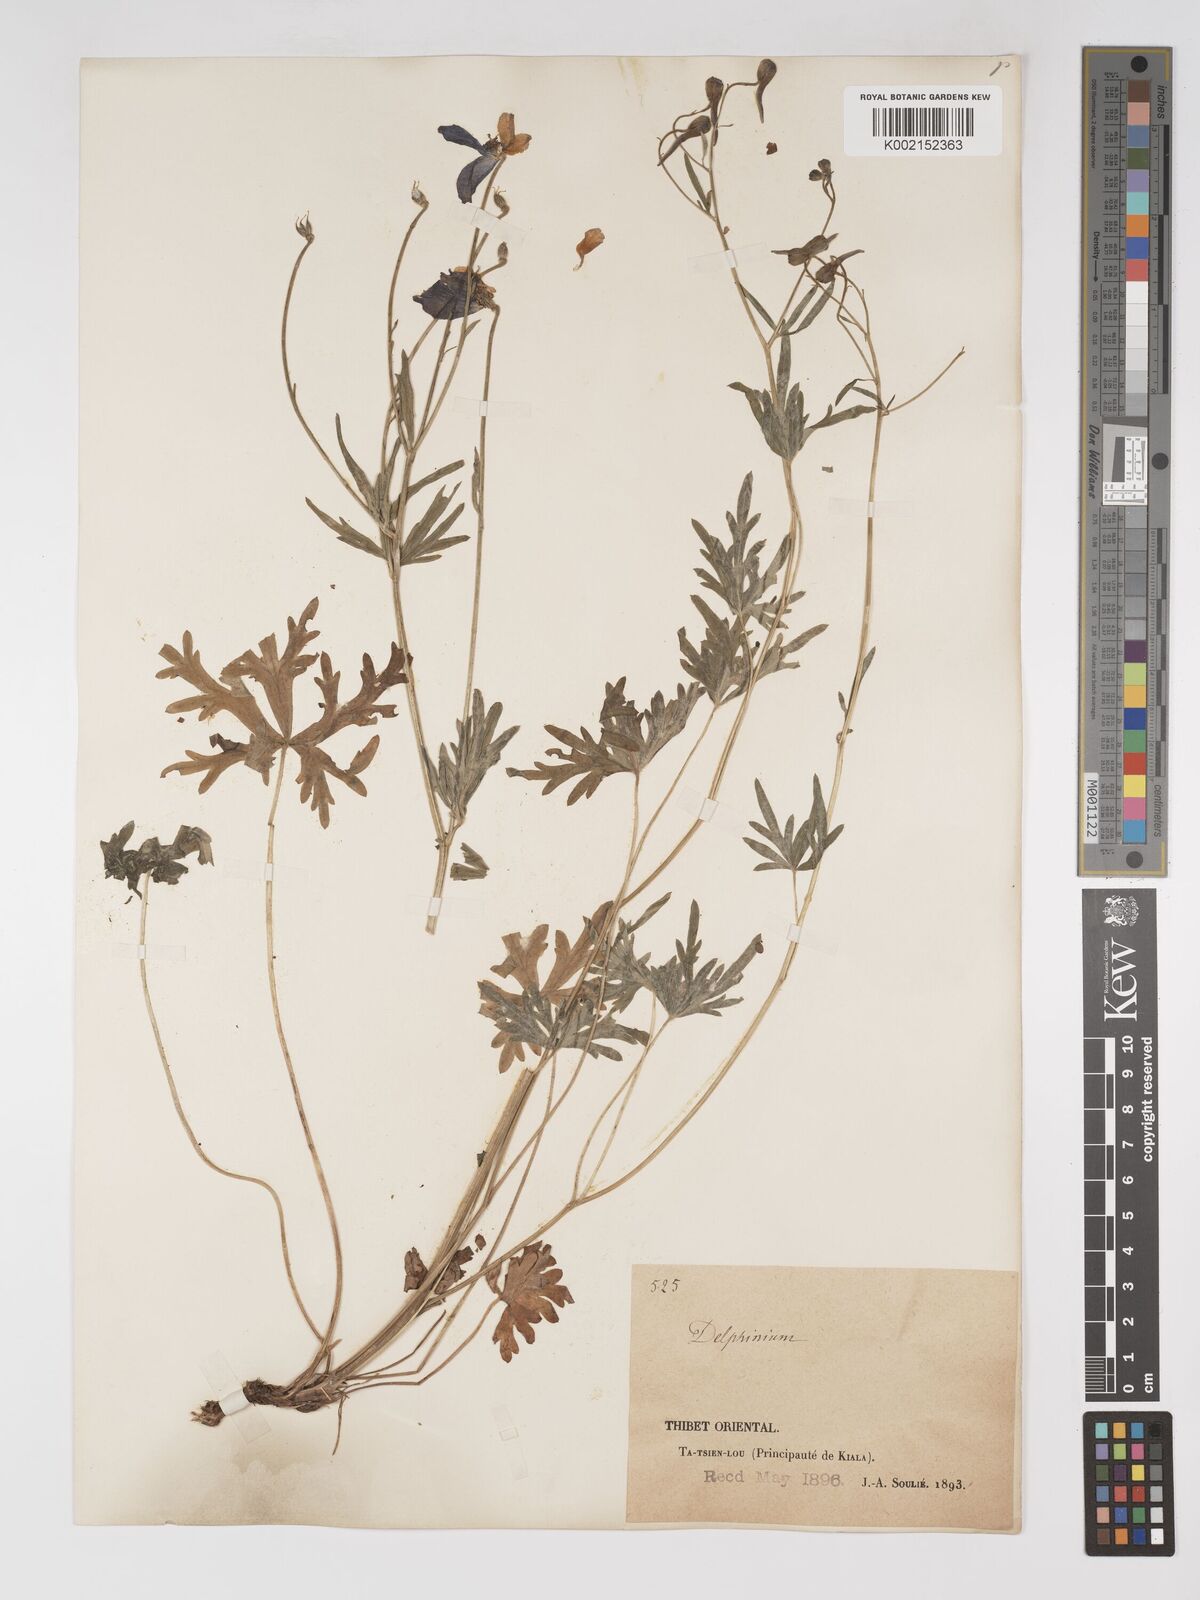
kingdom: Plantae
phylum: Tracheophyta
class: Magnoliopsida
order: Ranunculales
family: Ranunculaceae
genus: Delphinium
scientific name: Delphinium tatsienense
